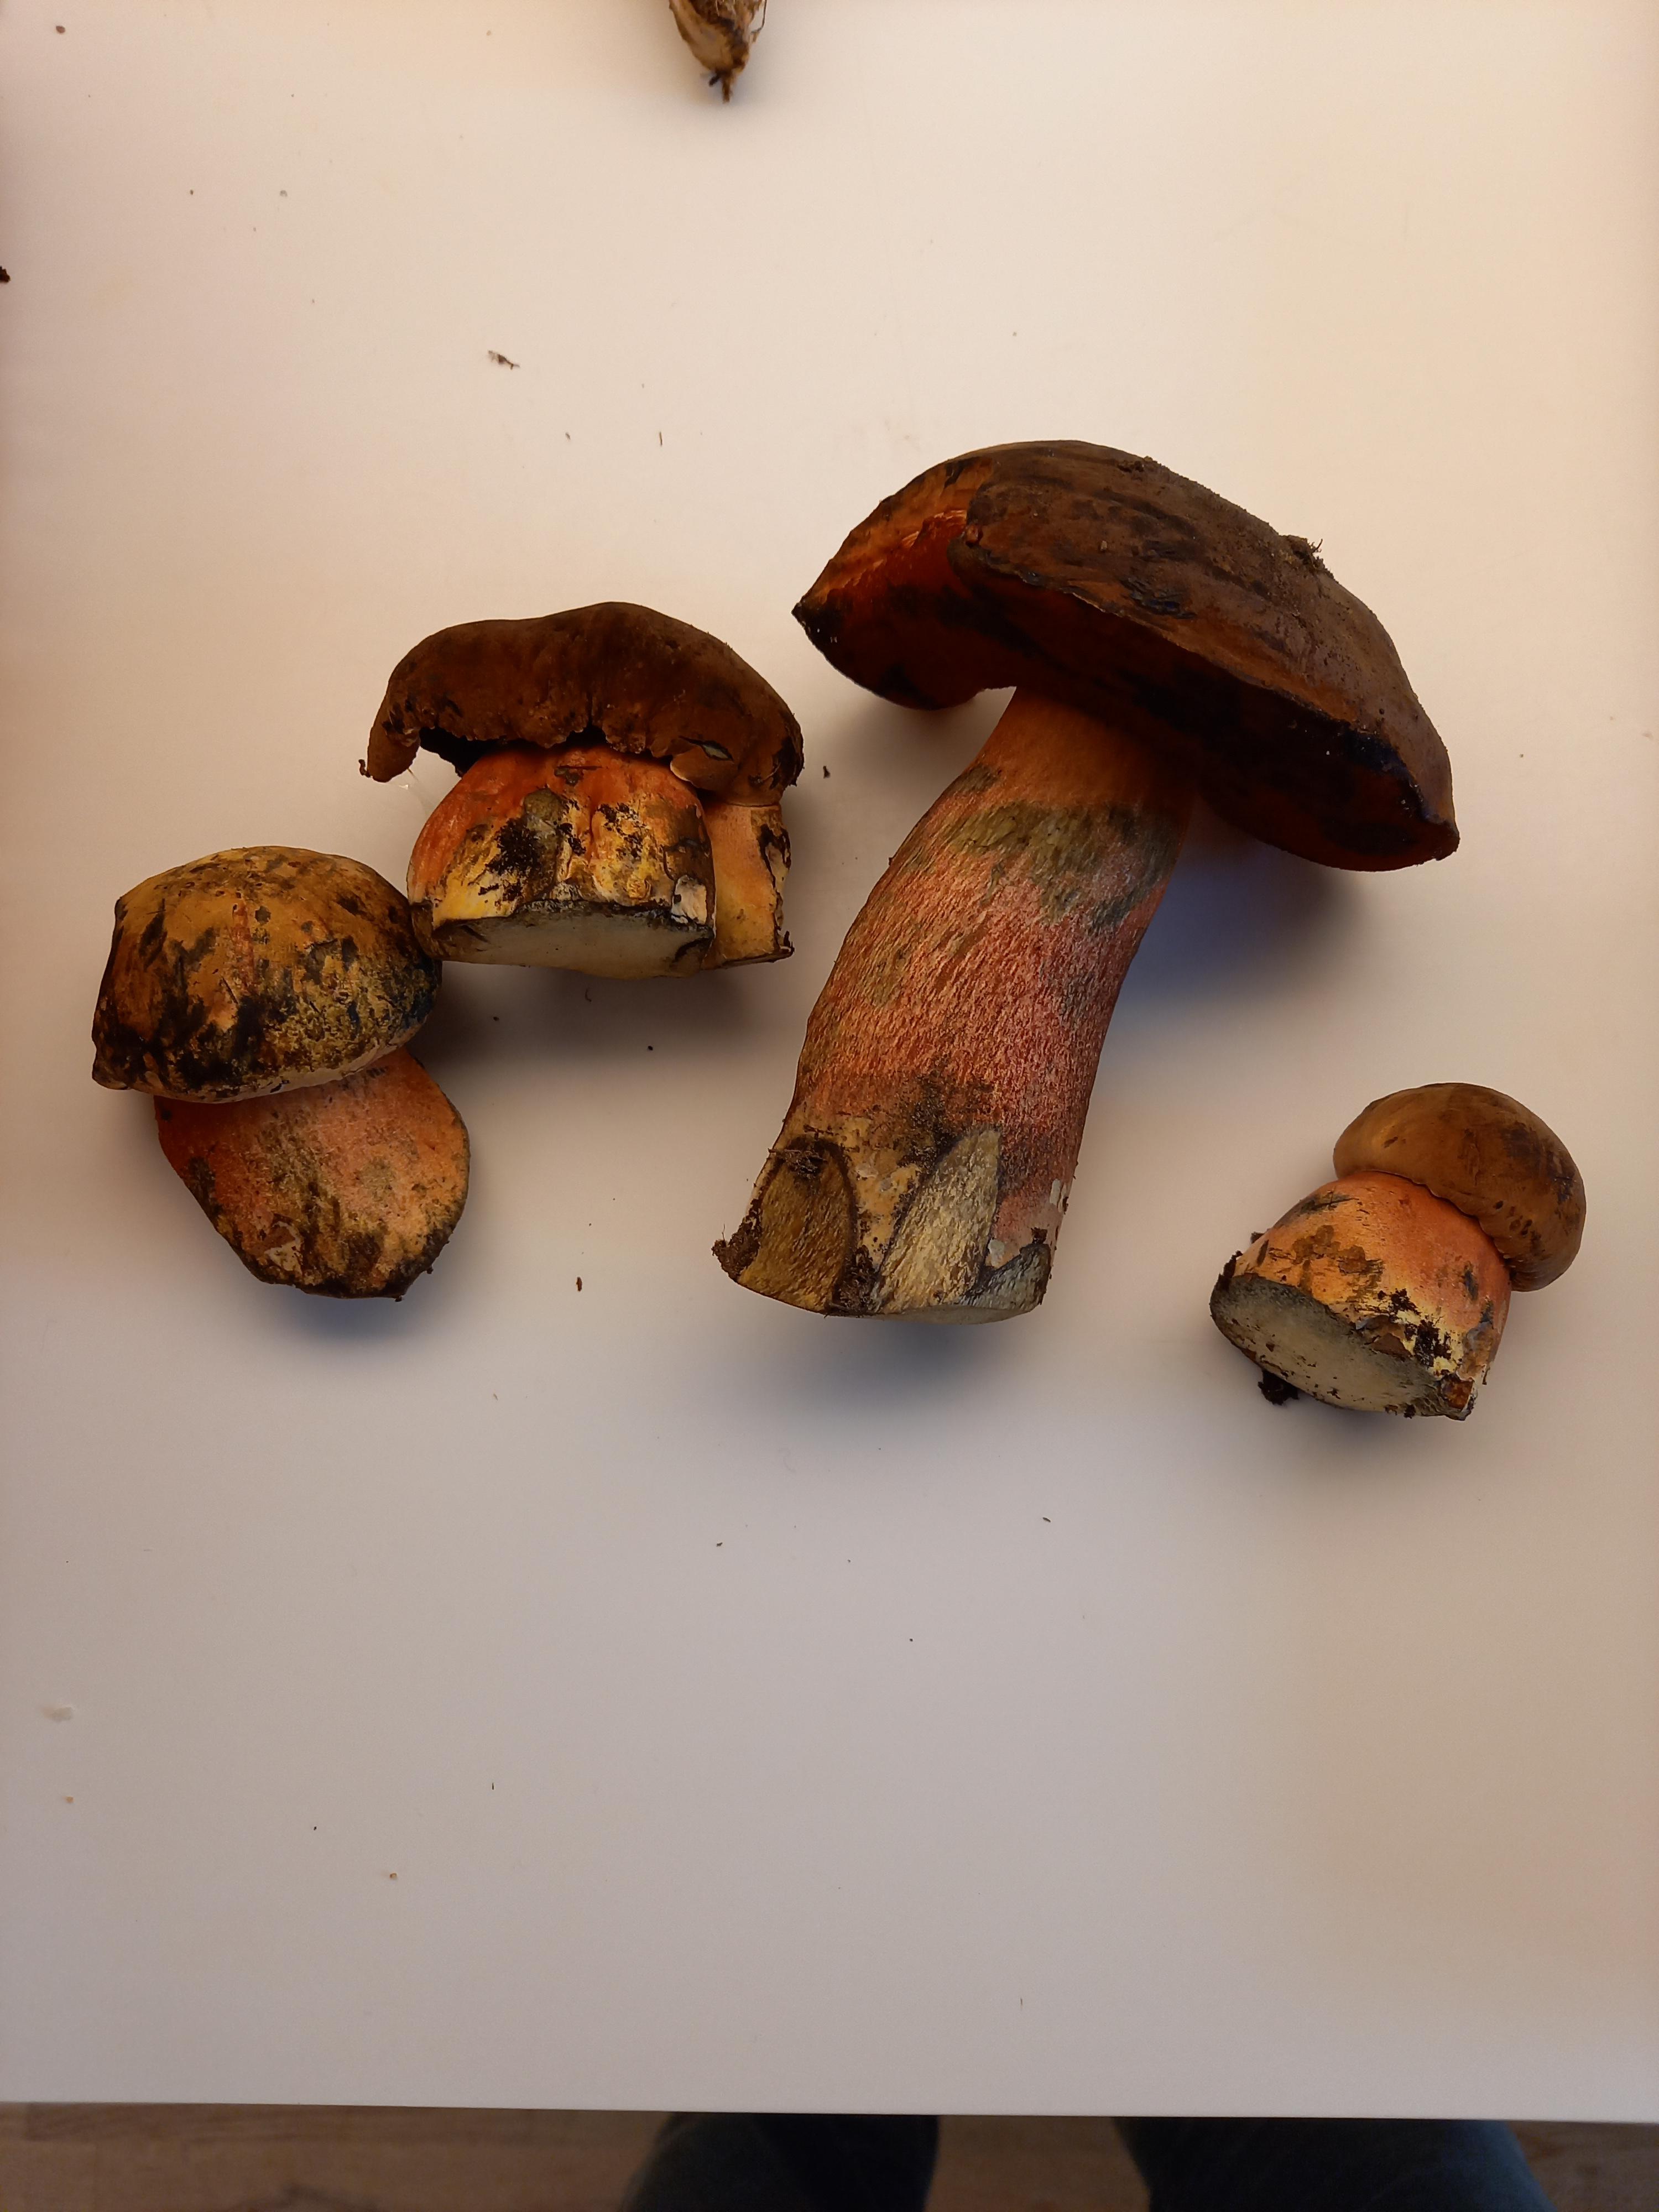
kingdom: Fungi
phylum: Basidiomycota
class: Agaricomycetes
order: Boletales
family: Boletaceae
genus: Neoboletus
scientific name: Neoboletus erythropus
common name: punktstokket indigorørhat
